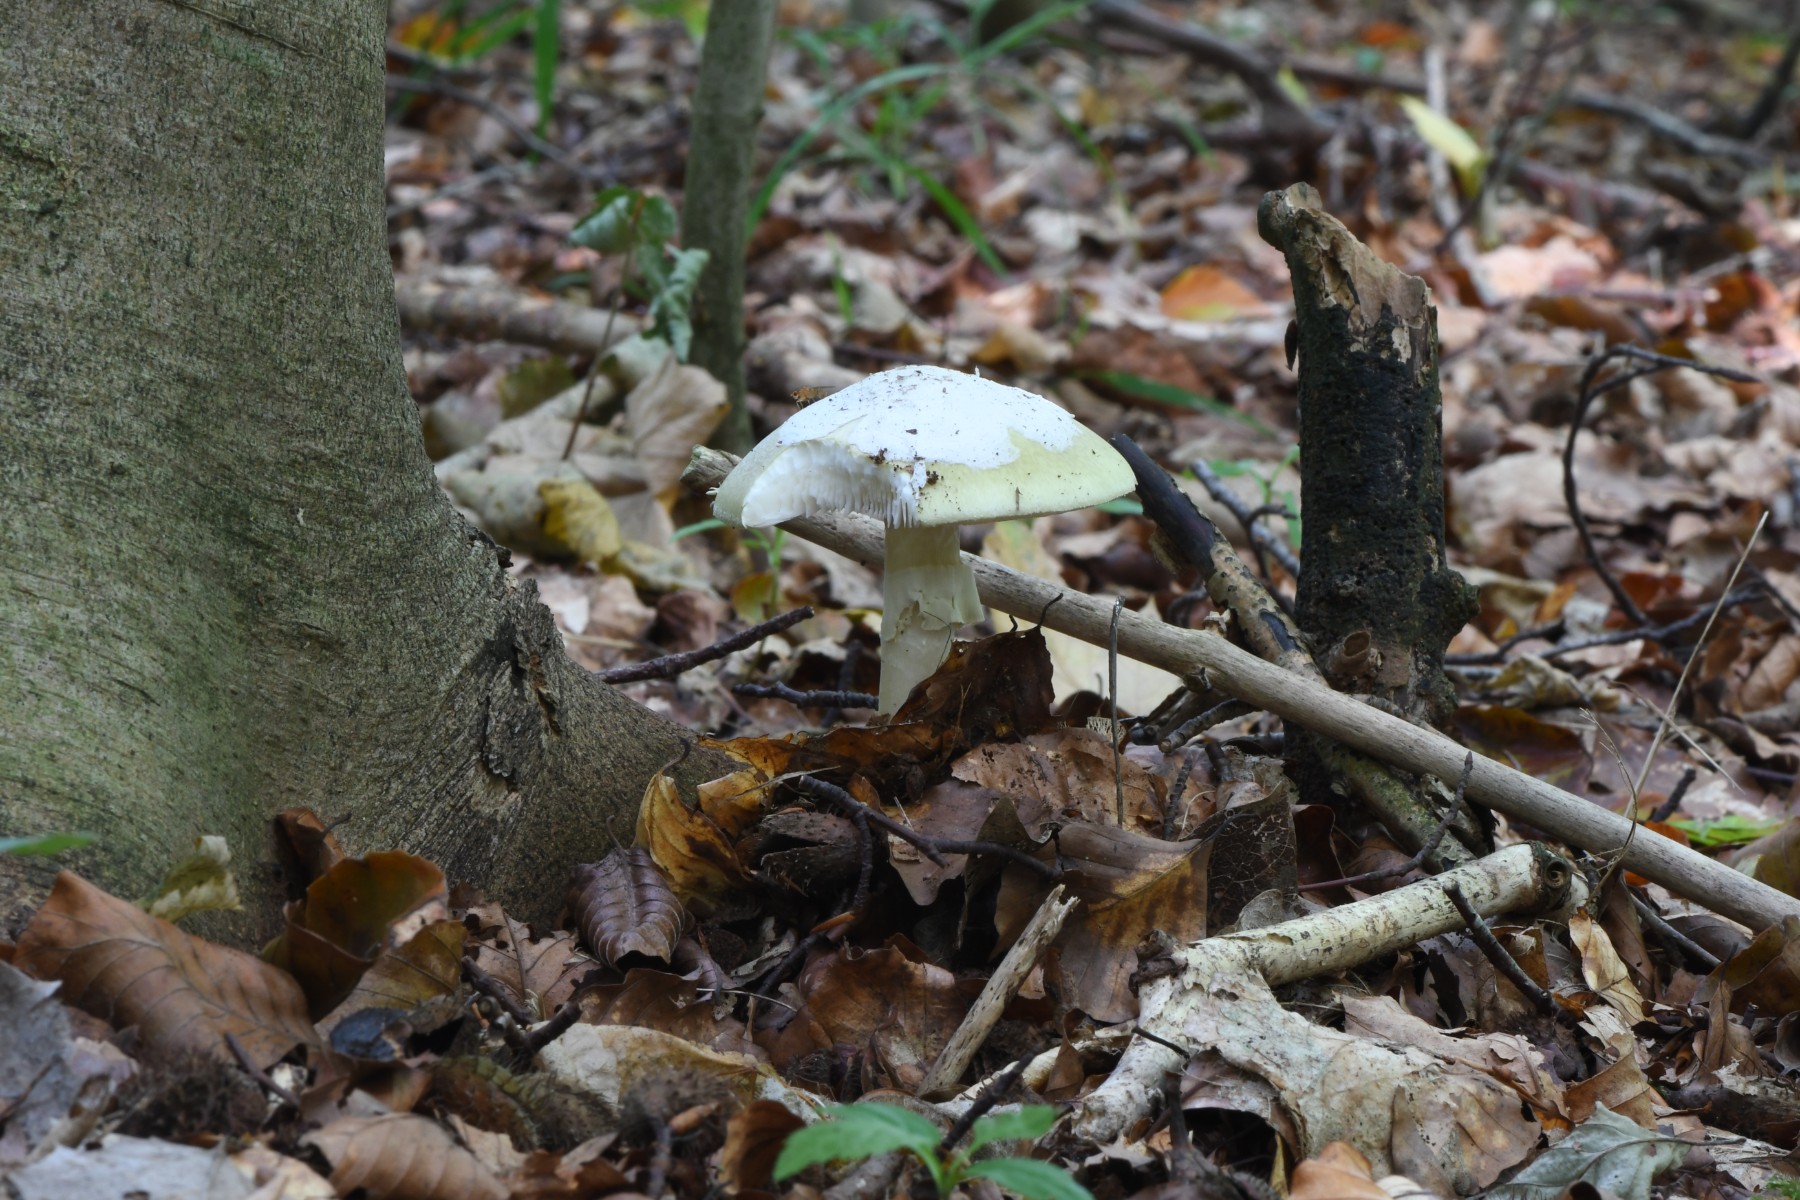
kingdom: Fungi
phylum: Basidiomycota
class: Agaricomycetes
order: Agaricales
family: Amanitaceae
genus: Amanita
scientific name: Amanita phalloides
